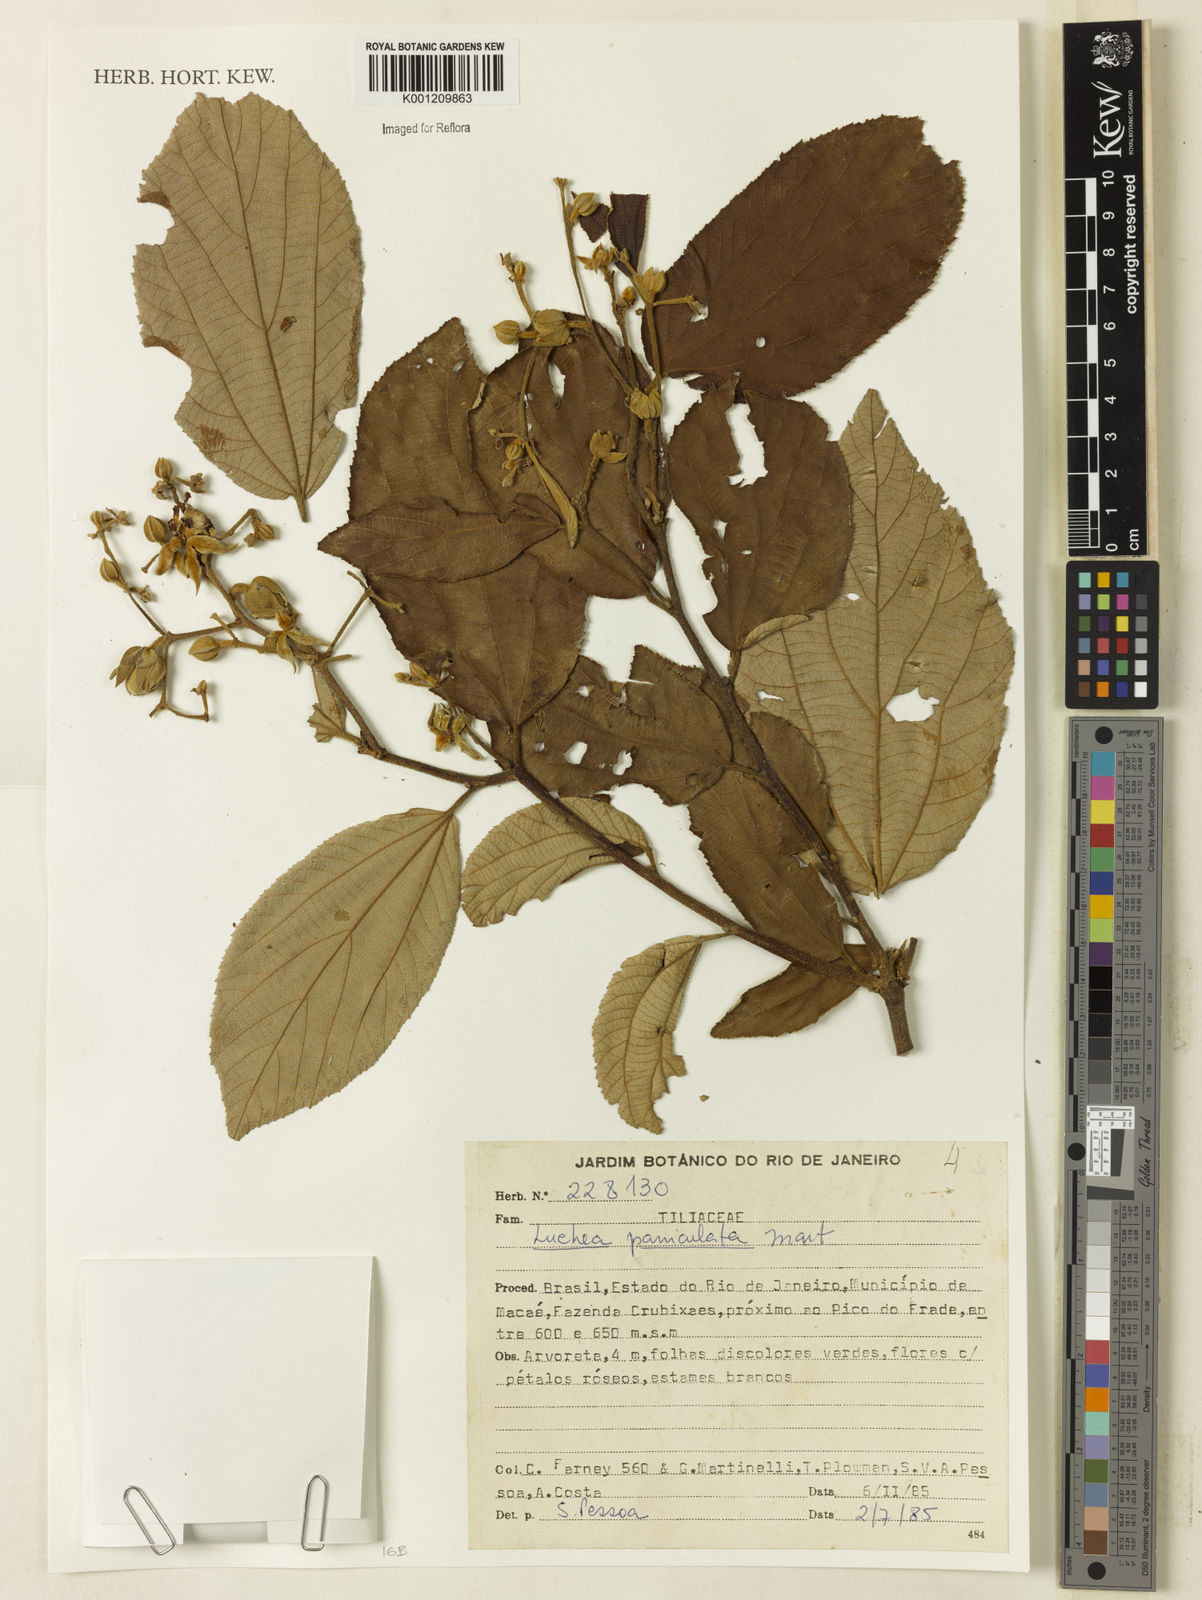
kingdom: Plantae
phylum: Tracheophyta
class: Magnoliopsida
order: Malvales
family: Malvaceae
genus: Luehea
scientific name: Luehea paniculata
